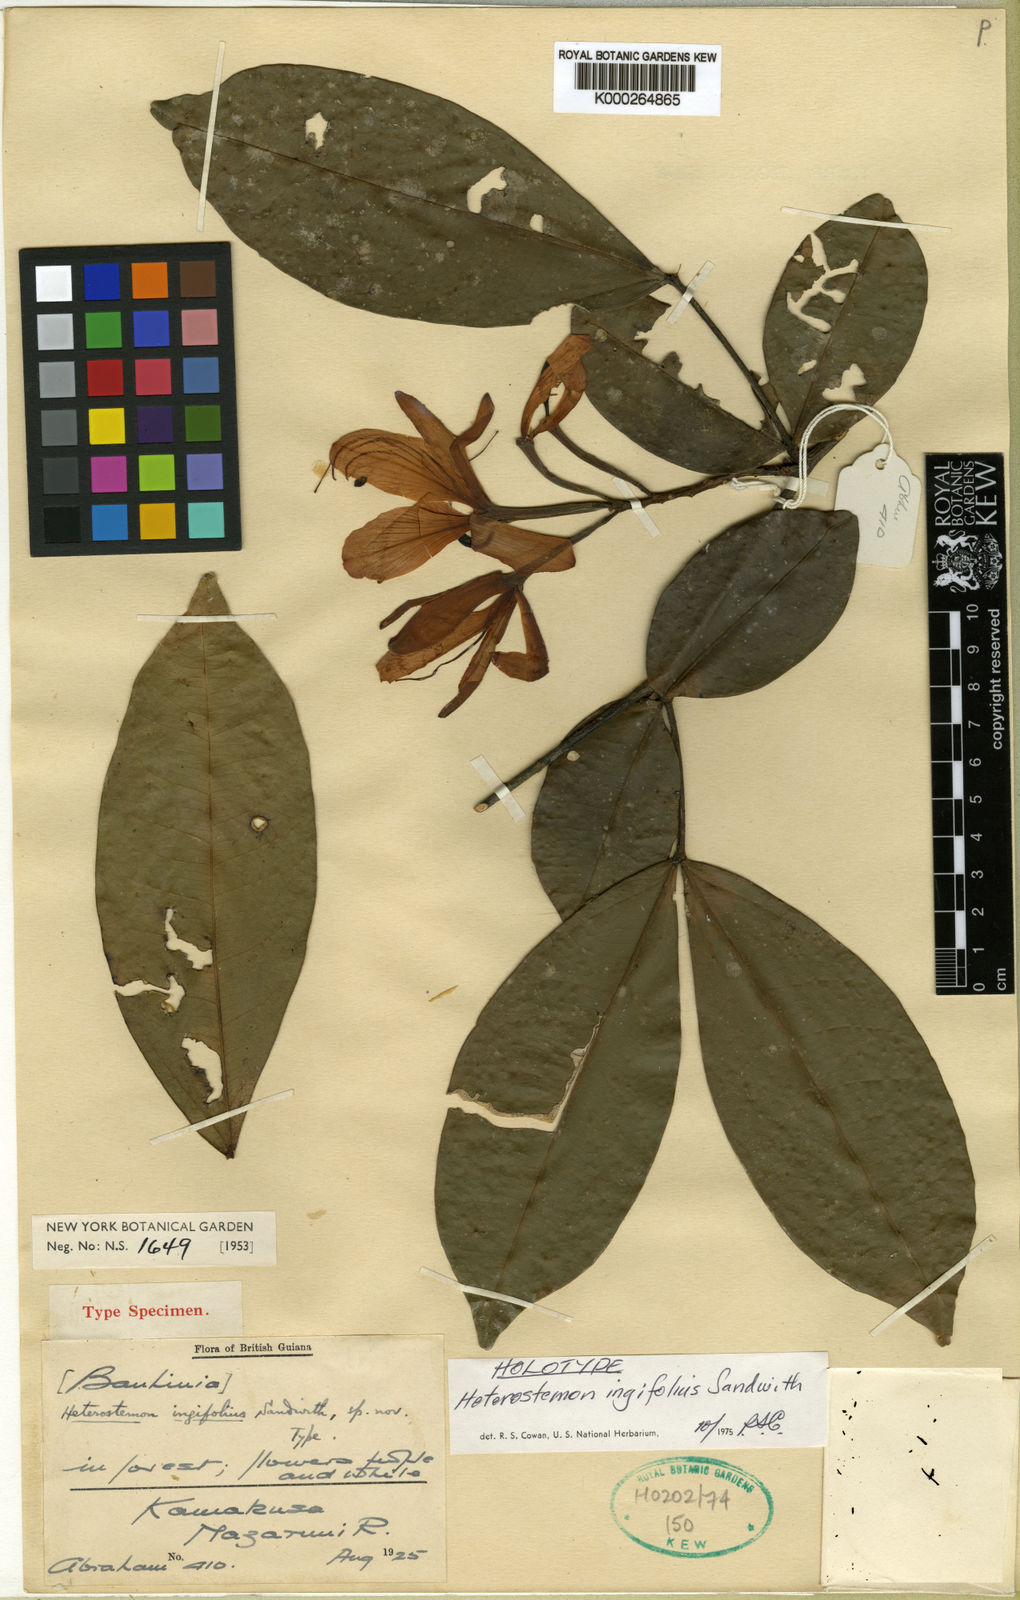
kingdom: Plantae
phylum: Tracheophyta
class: Magnoliopsida
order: Fabales
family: Fabaceae
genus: Heterostemon
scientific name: Heterostemon ingifolius
